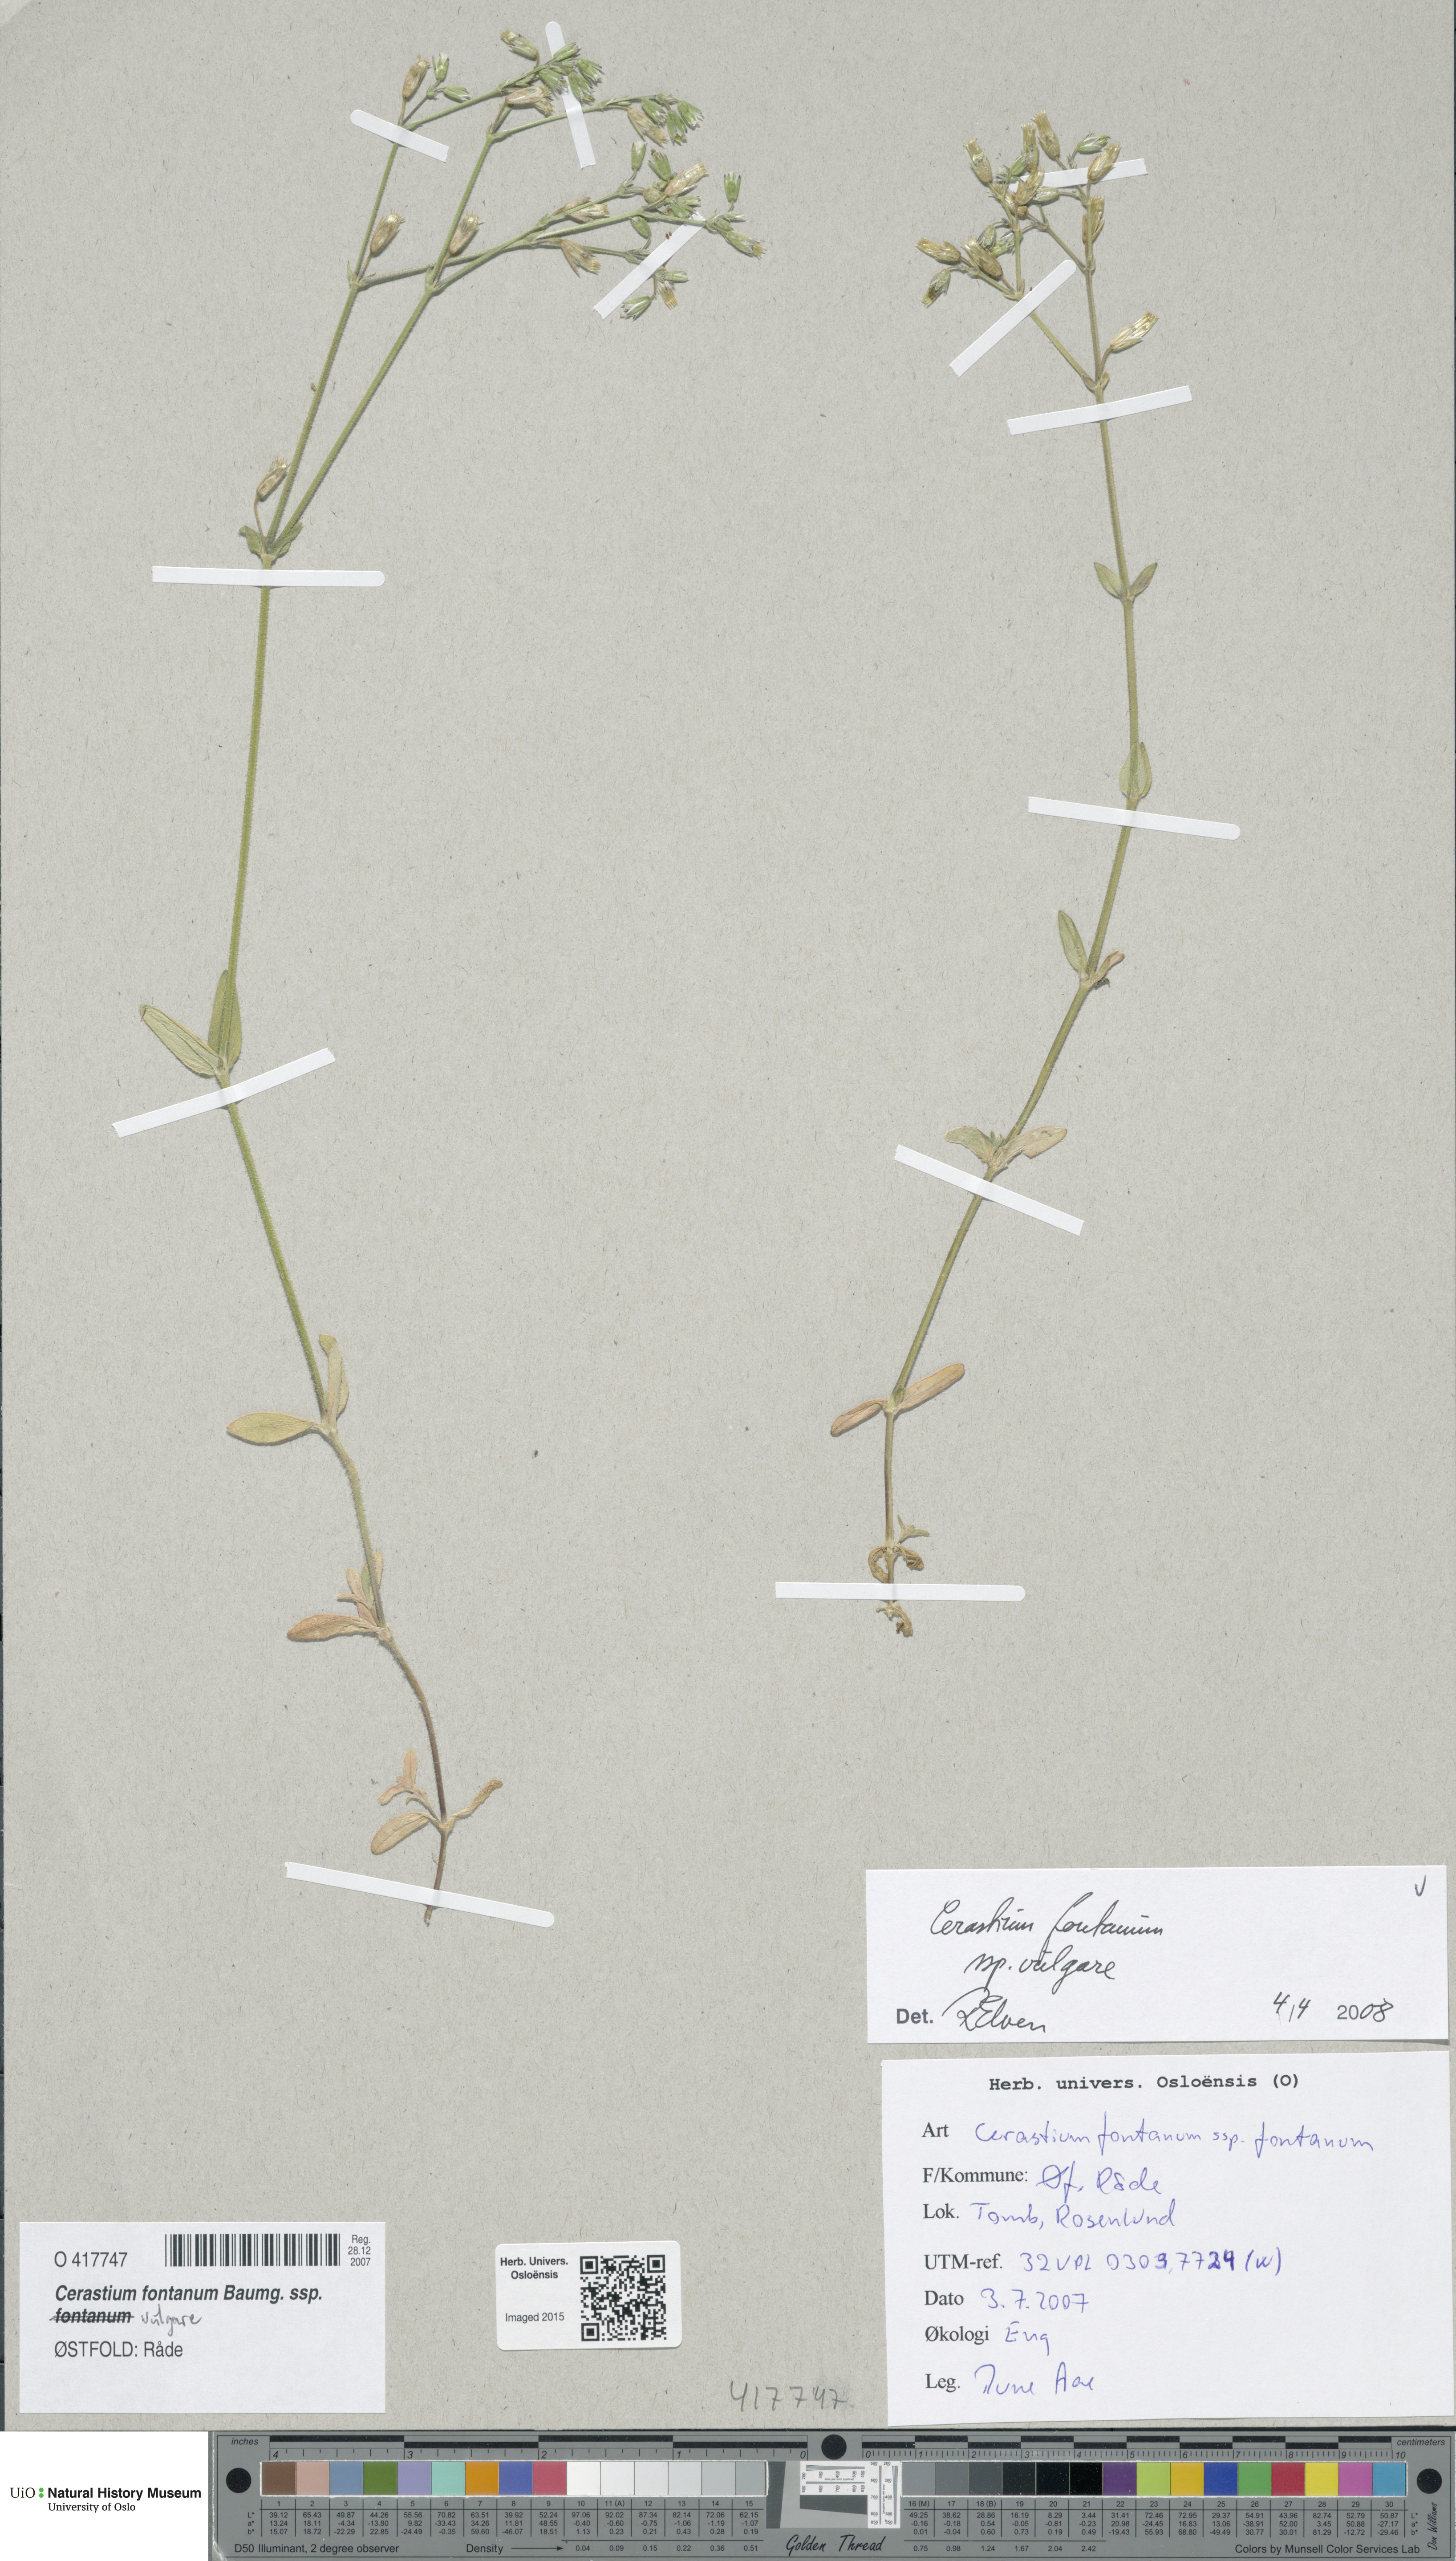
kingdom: Plantae
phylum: Tracheophyta
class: Magnoliopsida
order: Caryophyllales
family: Caryophyllaceae
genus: Cerastium
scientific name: Cerastium holosteoides
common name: Big chickweed
